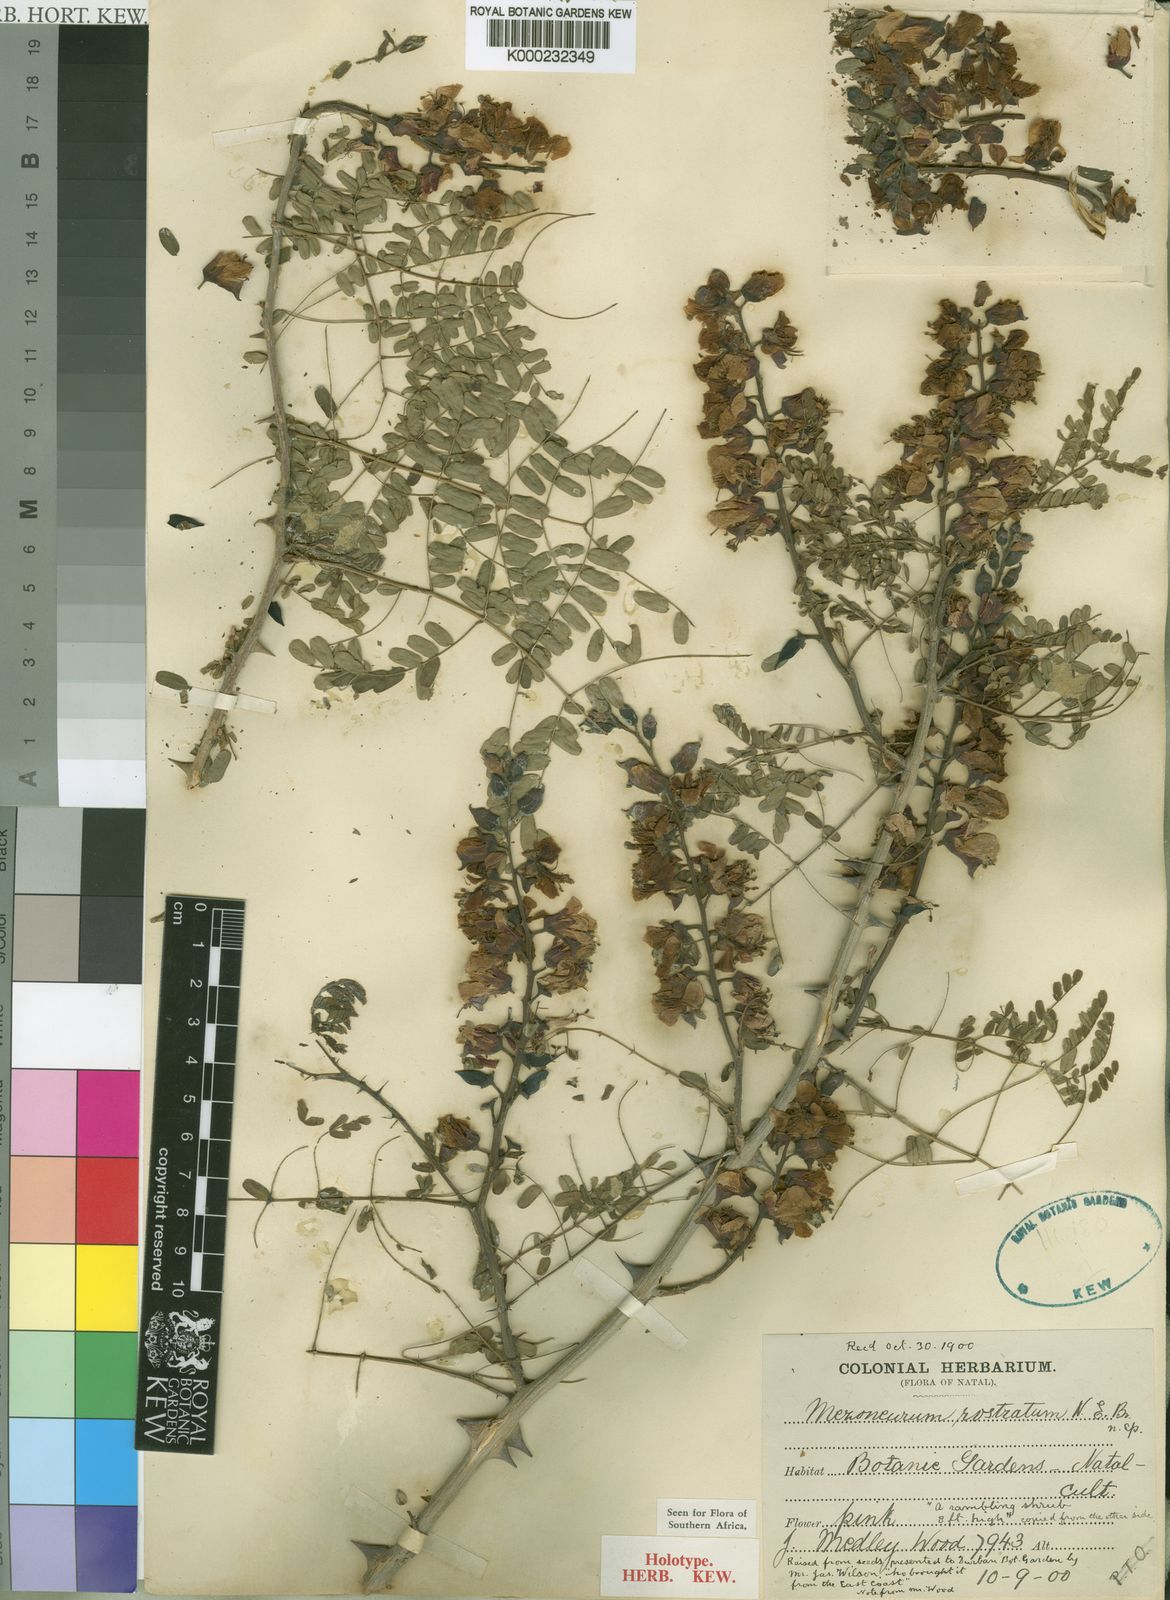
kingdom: Plantae
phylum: Tracheophyta
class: Magnoliopsida
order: Fabales
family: Fabaceae
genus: Gelrebia
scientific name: Gelrebia rostrata
